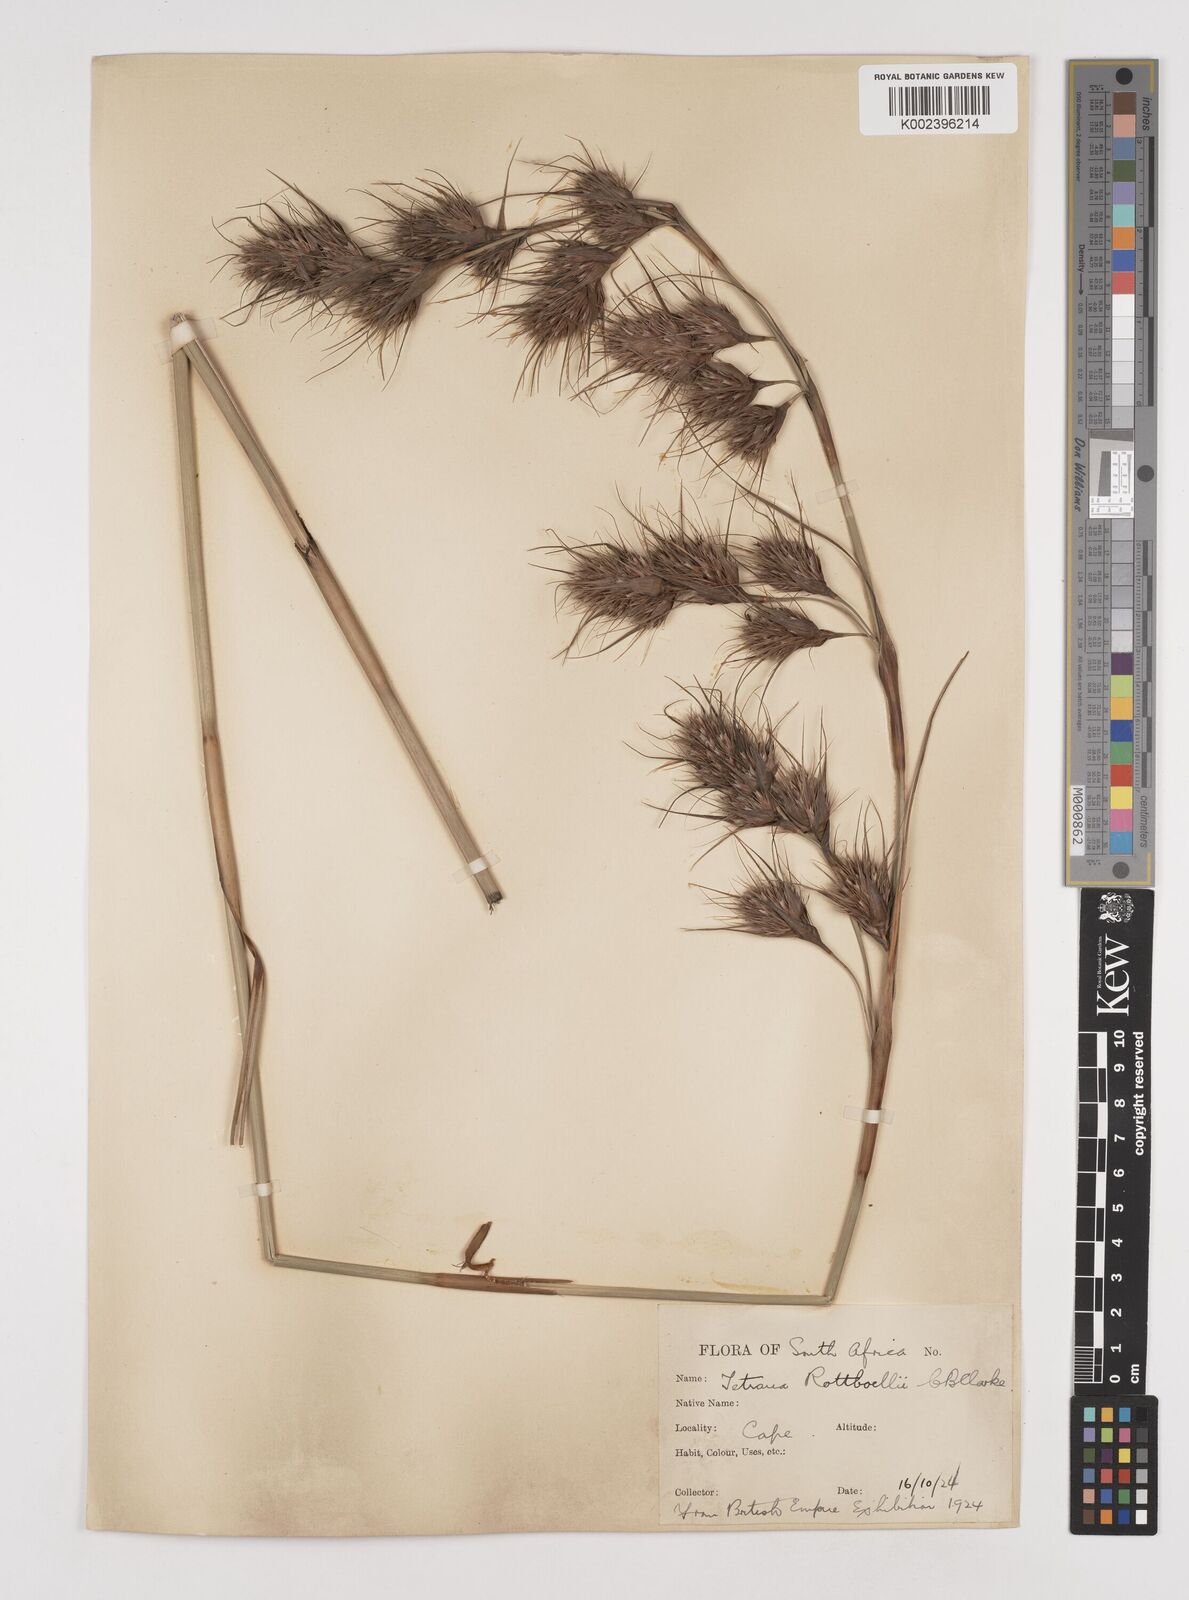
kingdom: Plantae
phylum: Tracheophyta
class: Liliopsida
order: Poales
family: Cyperaceae
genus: Tetraria
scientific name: Tetraria bromoides
